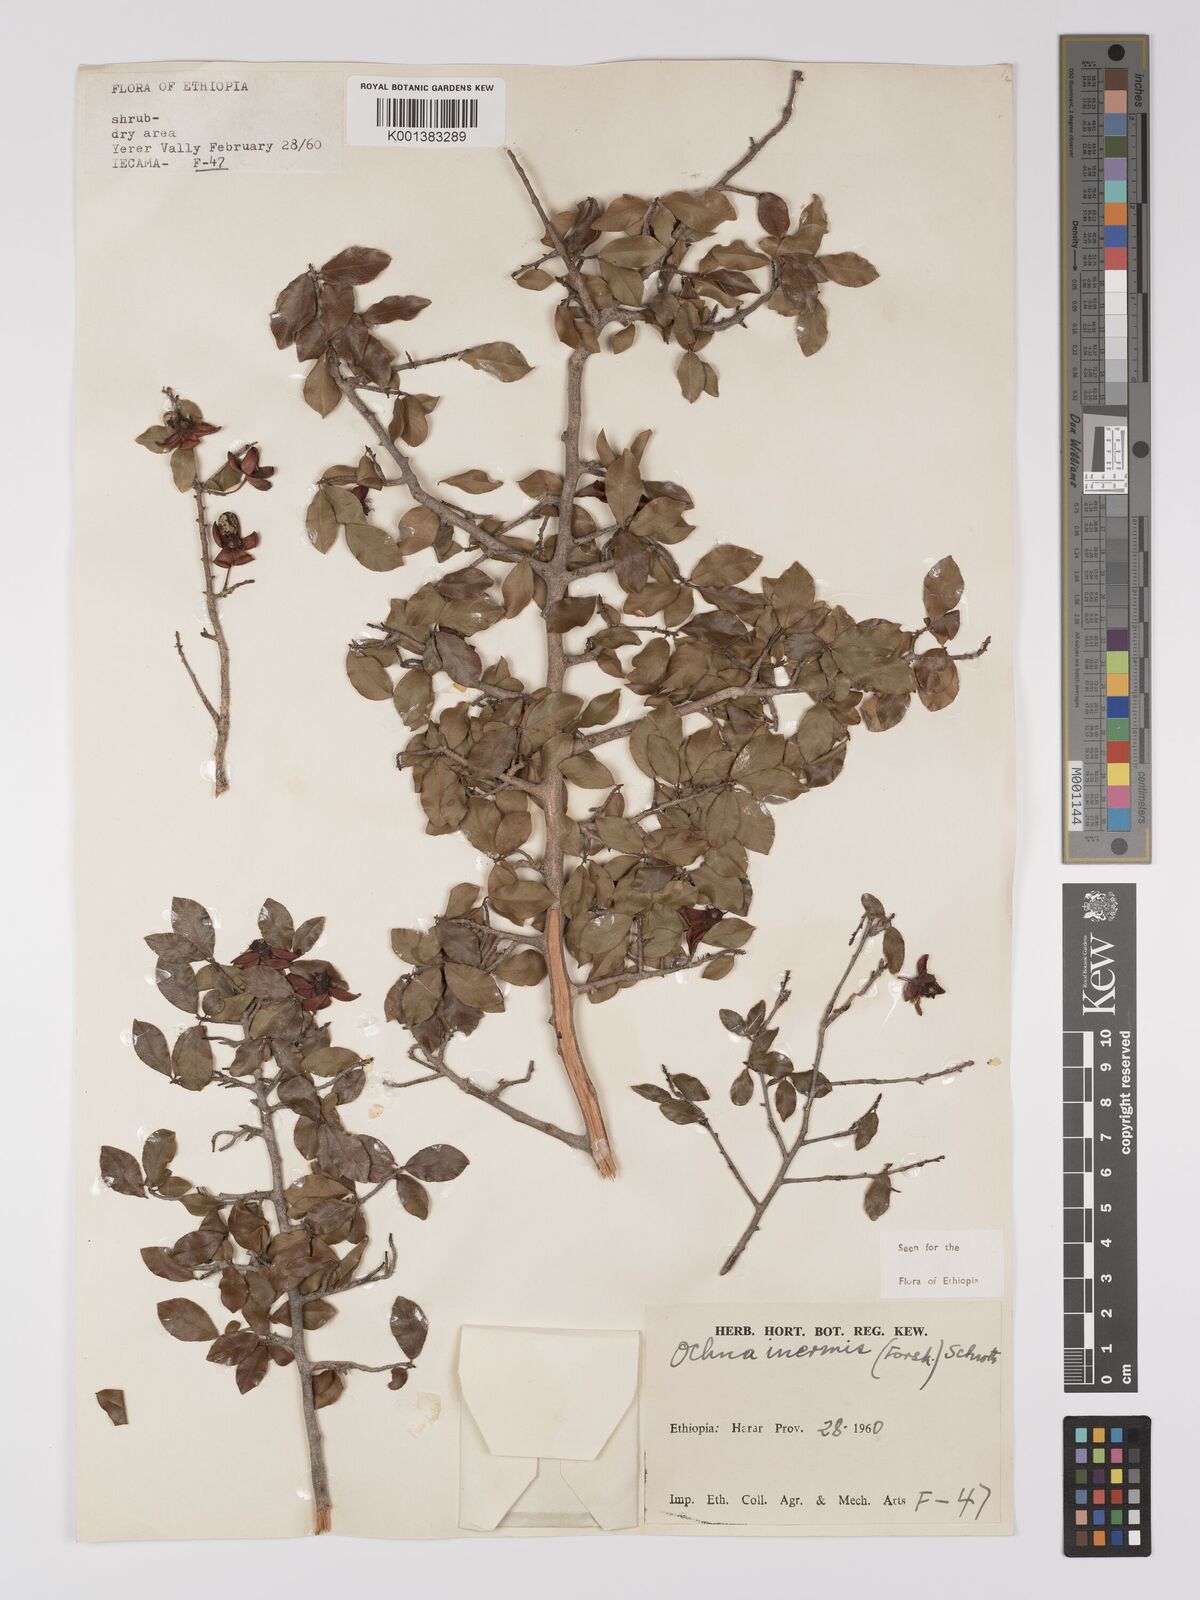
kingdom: Plantae
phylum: Tracheophyta
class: Magnoliopsida
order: Malpighiales
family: Ochnaceae
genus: Ochna
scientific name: Ochna inermis
